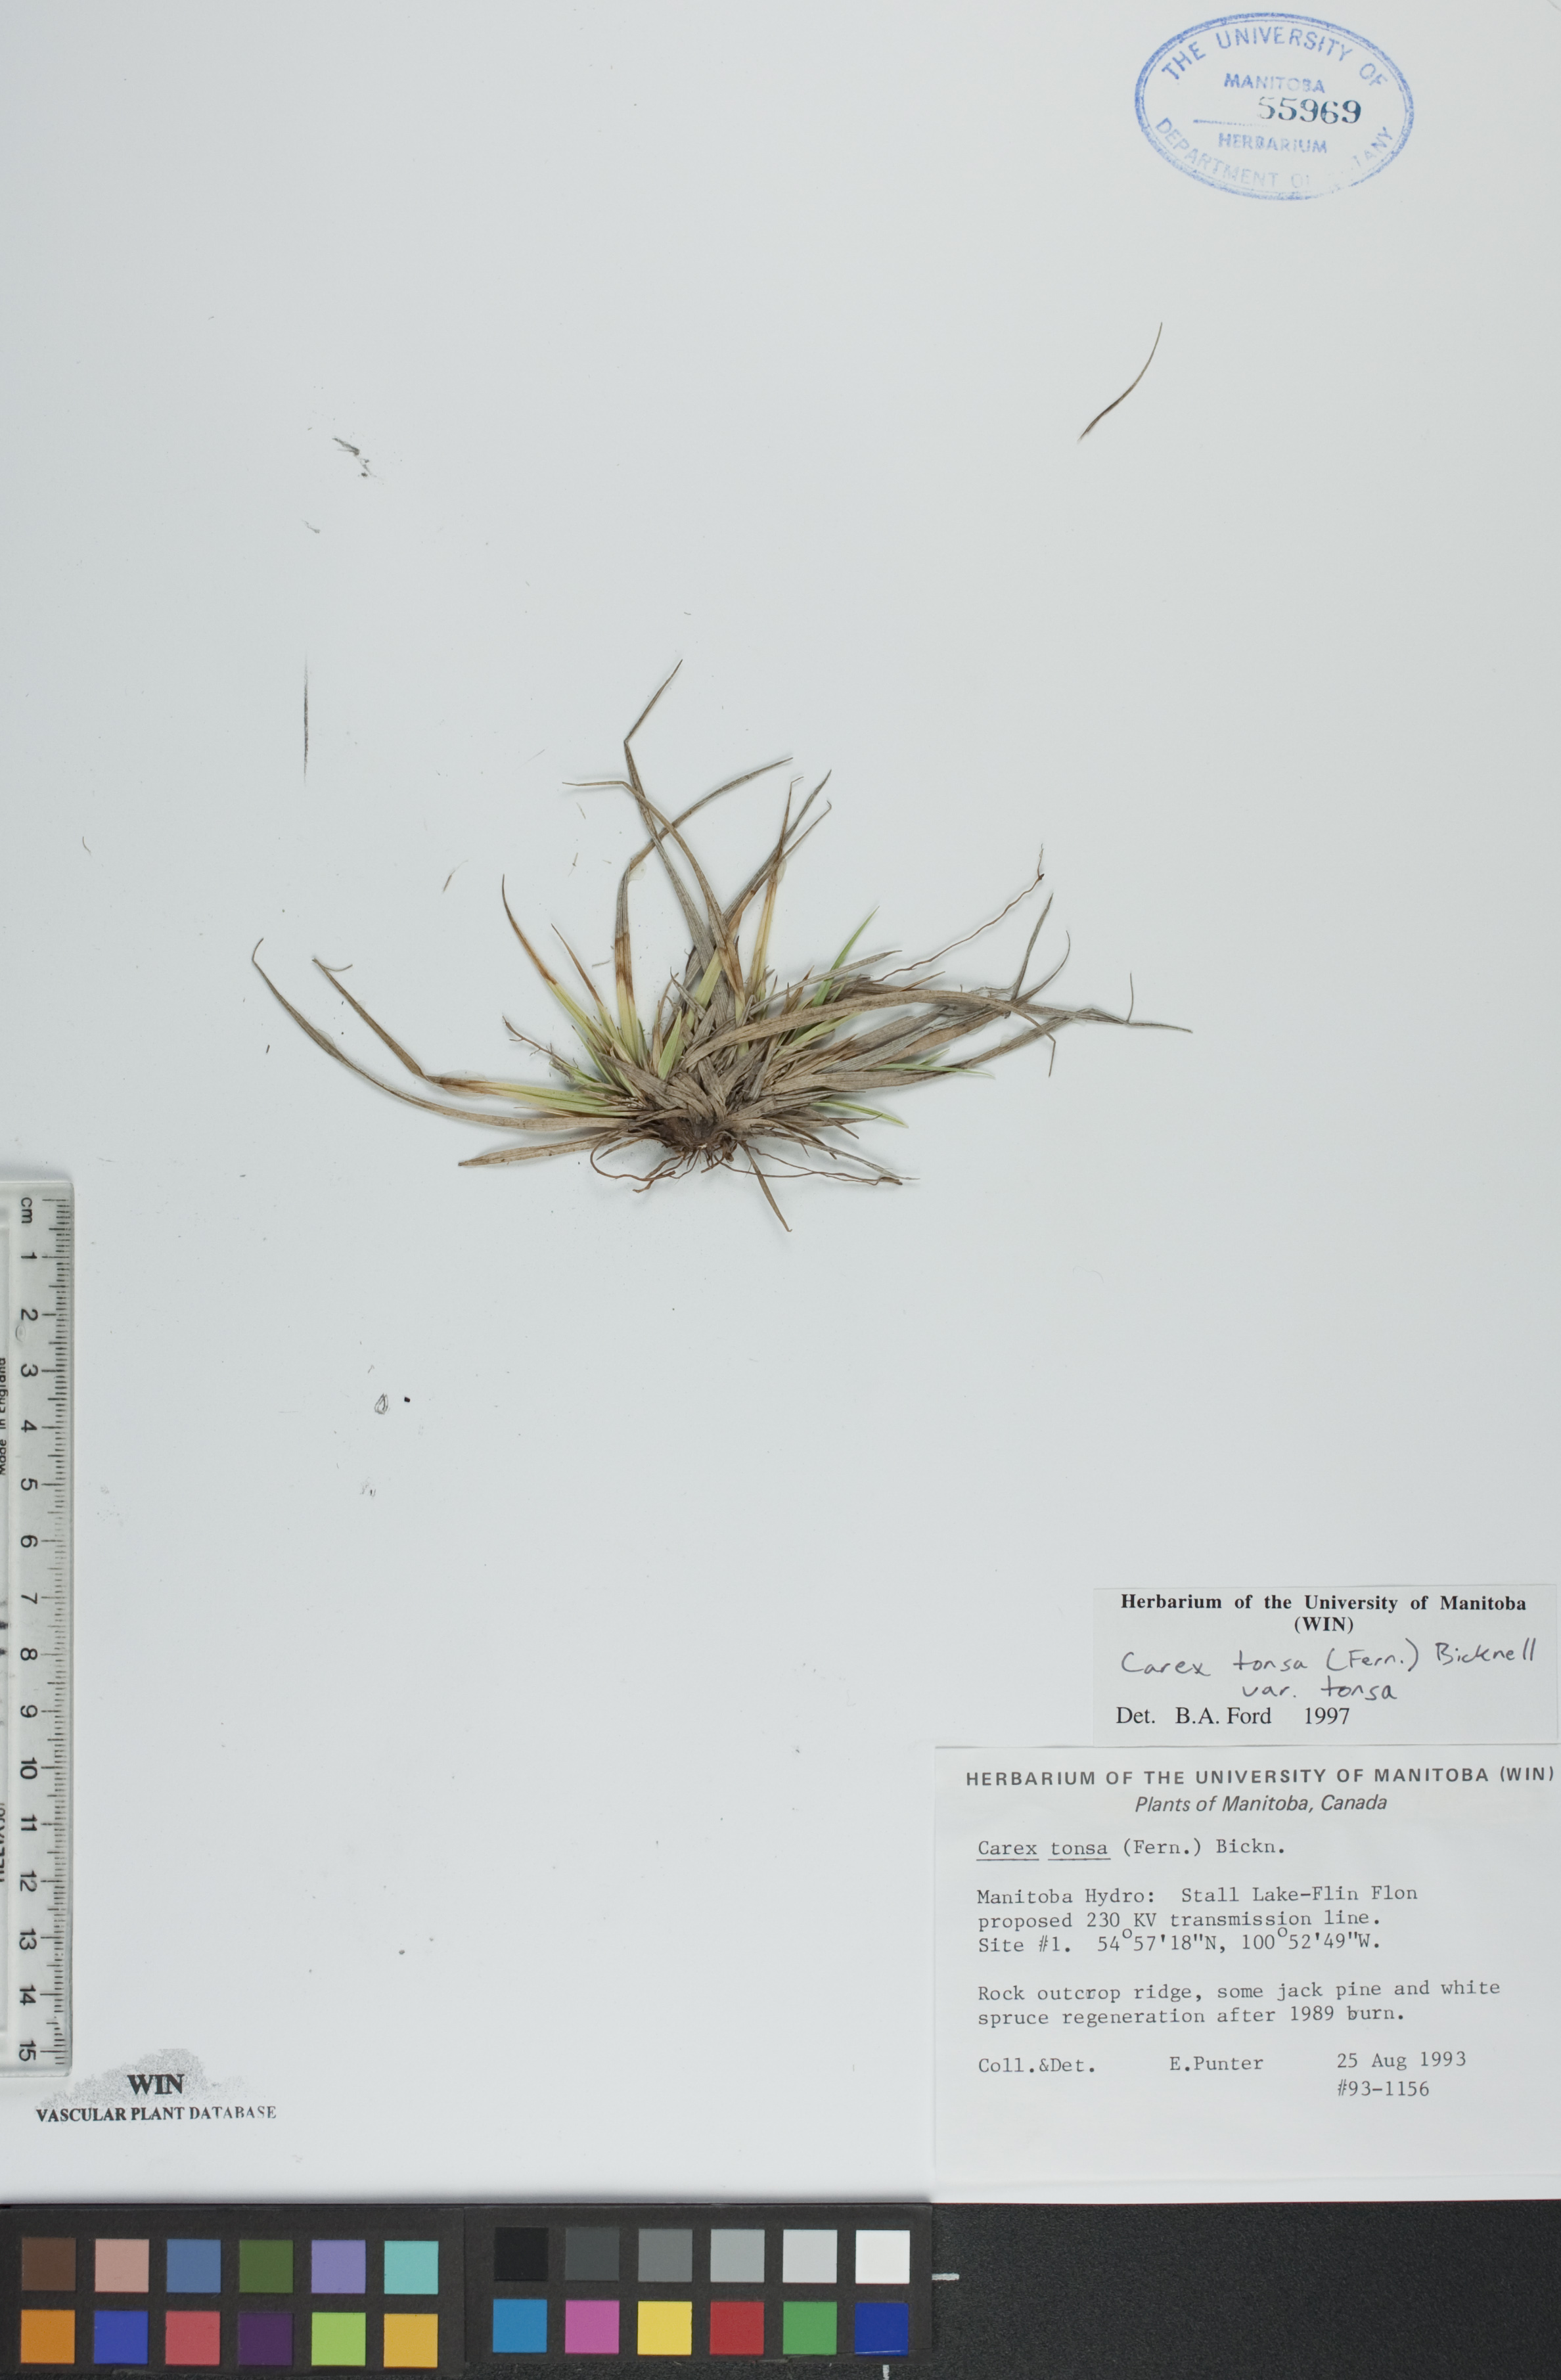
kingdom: Plantae
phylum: Tracheophyta
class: Liliopsida
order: Poales
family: Cyperaceae
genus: Carex
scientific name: Carex tonsa
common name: Bald sedge
